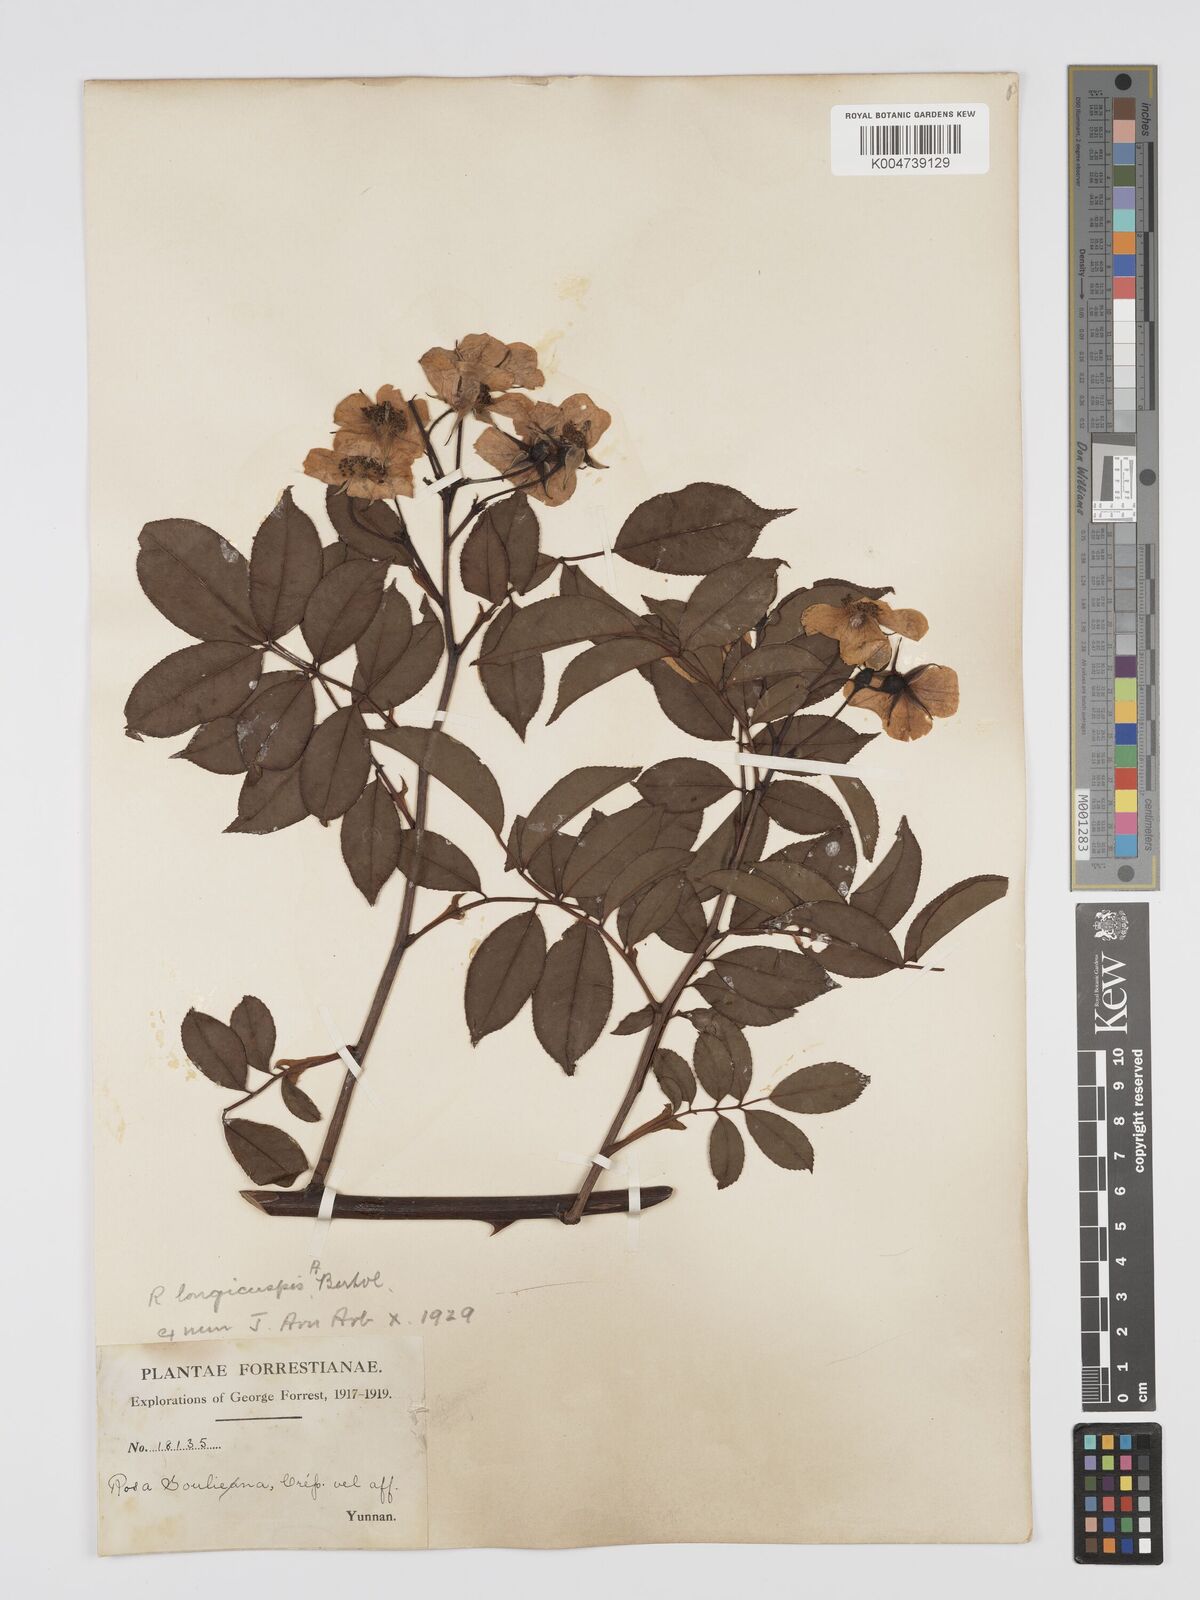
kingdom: Plantae
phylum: Tracheophyta
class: Magnoliopsida
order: Rosales
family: Rosaceae
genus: Rosa
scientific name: Rosa longicuspis
